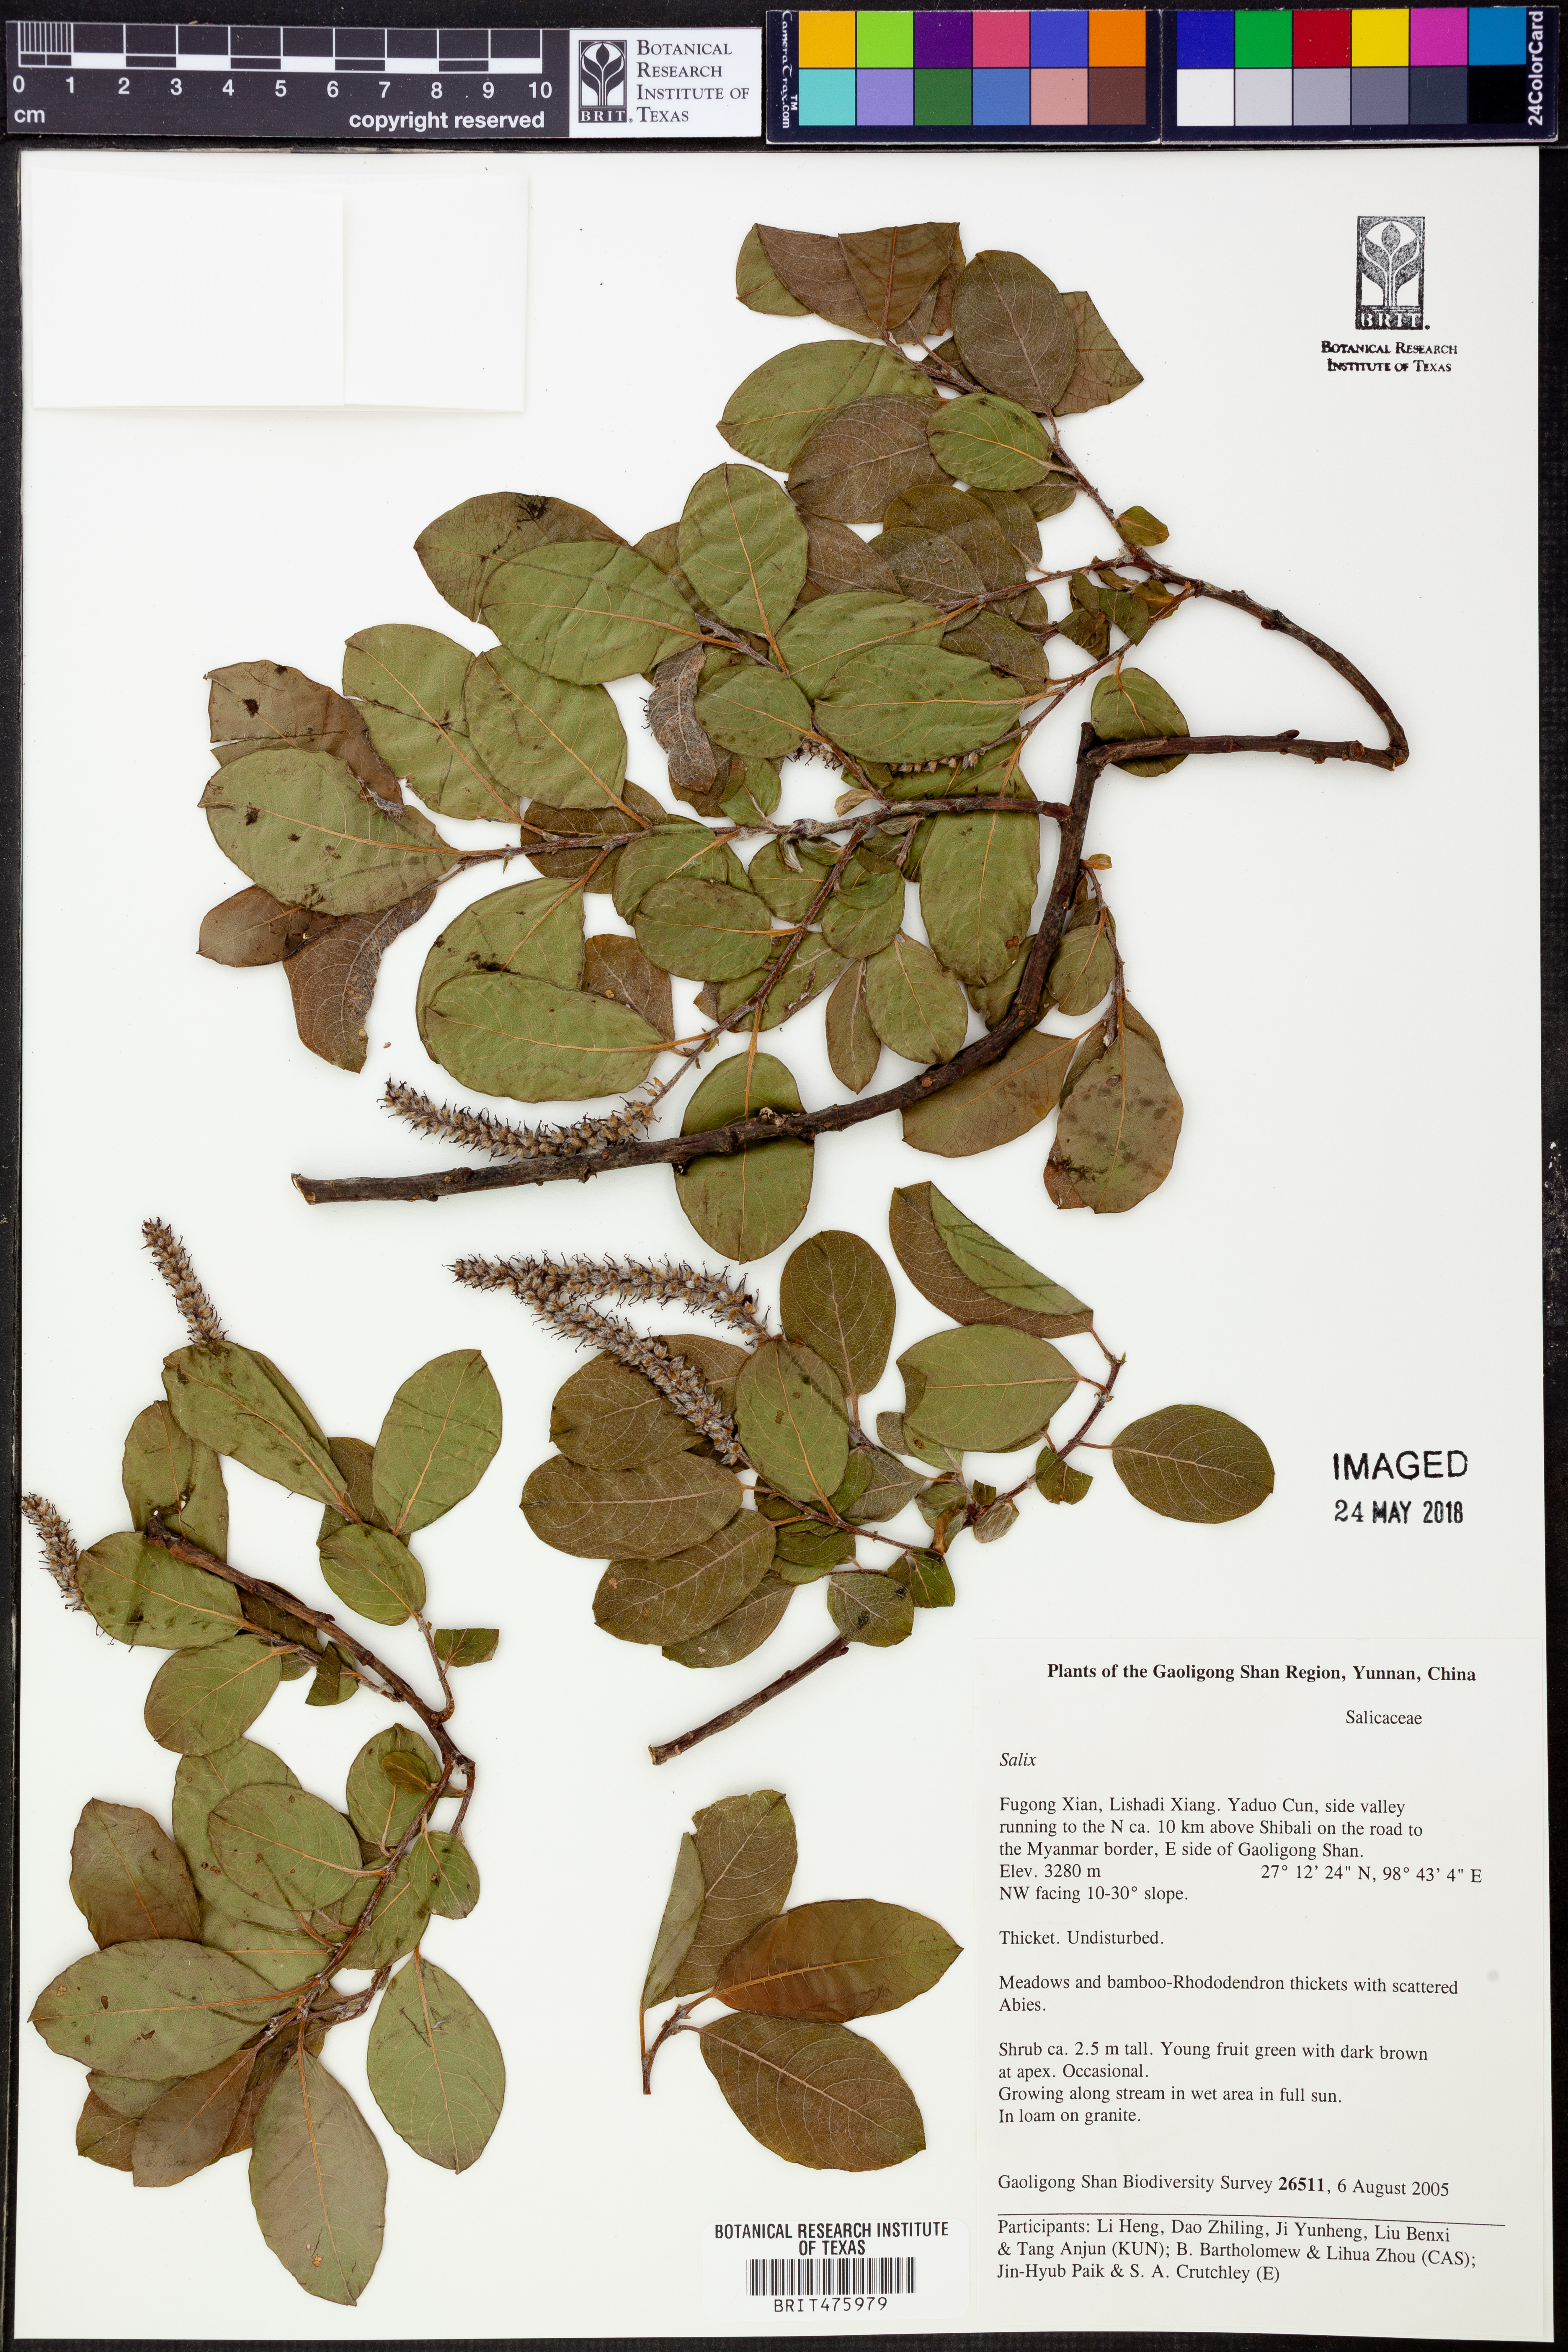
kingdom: Plantae
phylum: Tracheophyta
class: Magnoliopsida
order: Malpighiales
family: Salicaceae
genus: Salix
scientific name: Salix
